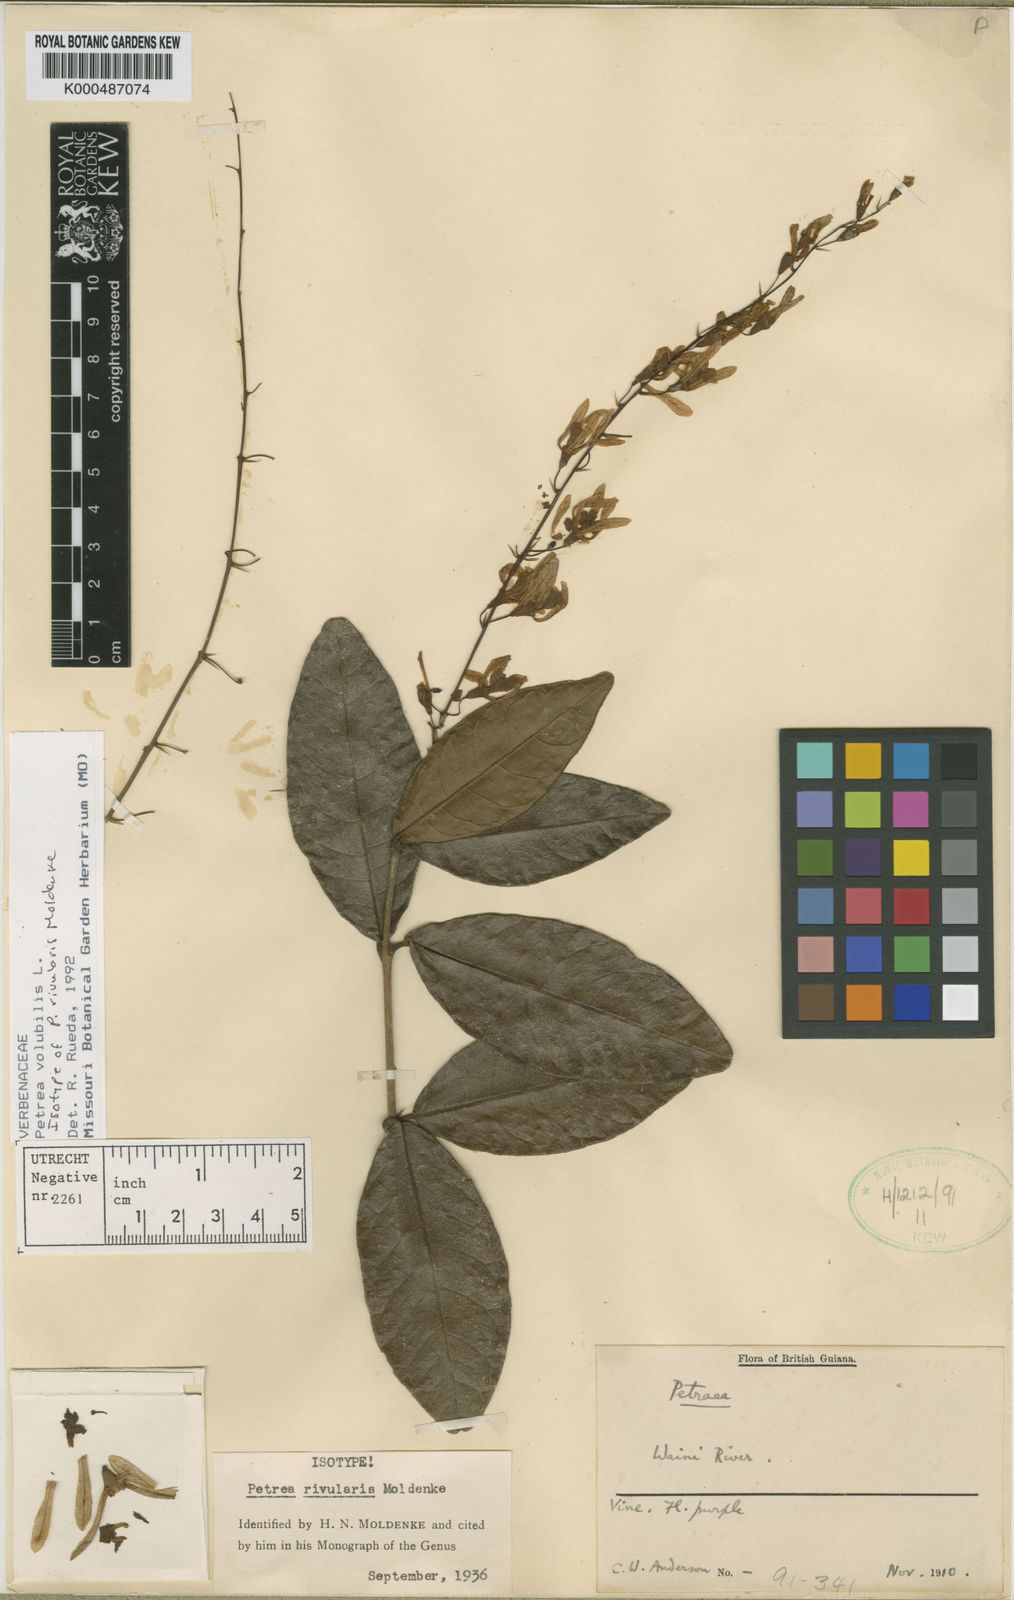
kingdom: Plantae
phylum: Tracheophyta
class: Magnoliopsida
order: Lamiales
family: Verbenaceae
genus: Petrea
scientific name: Petrea volubilis
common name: Queen's-wreath
